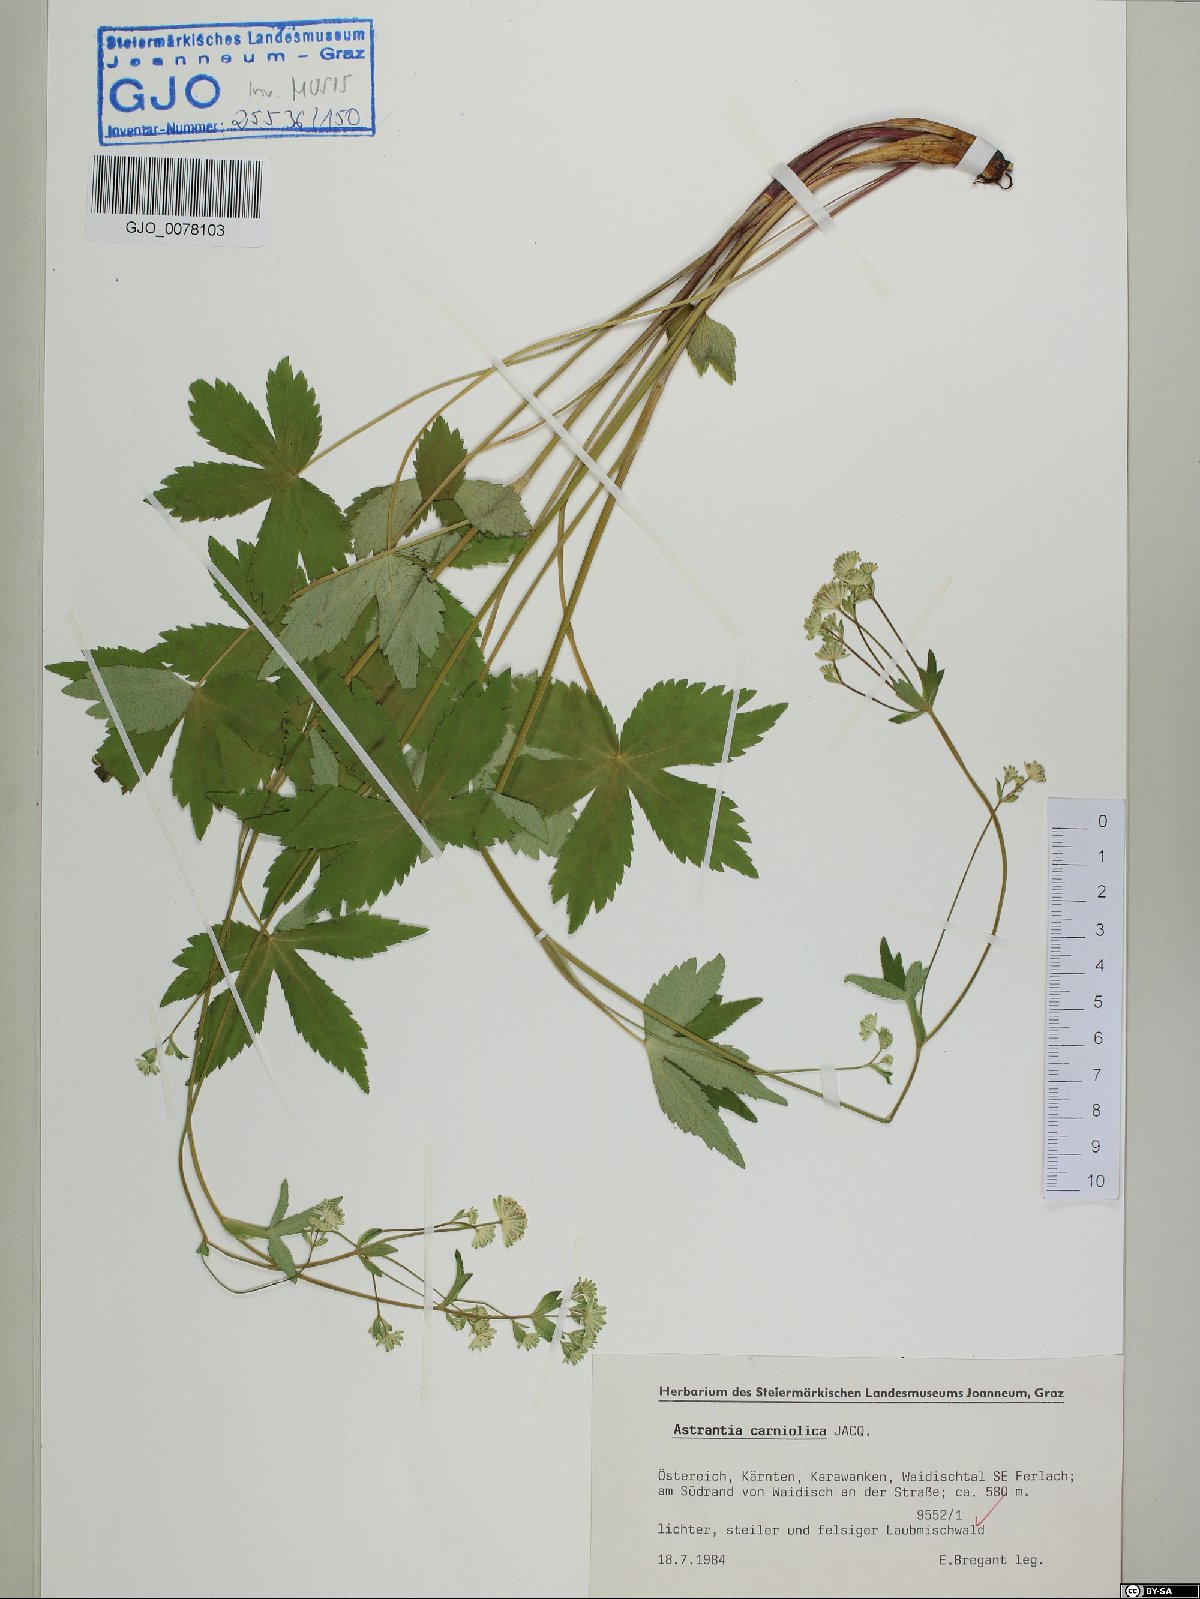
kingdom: Plantae
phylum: Tracheophyta
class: Magnoliopsida
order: Apiales
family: Apiaceae
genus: Astrantia
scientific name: Astrantia carniolica
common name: Carnic masterwort
